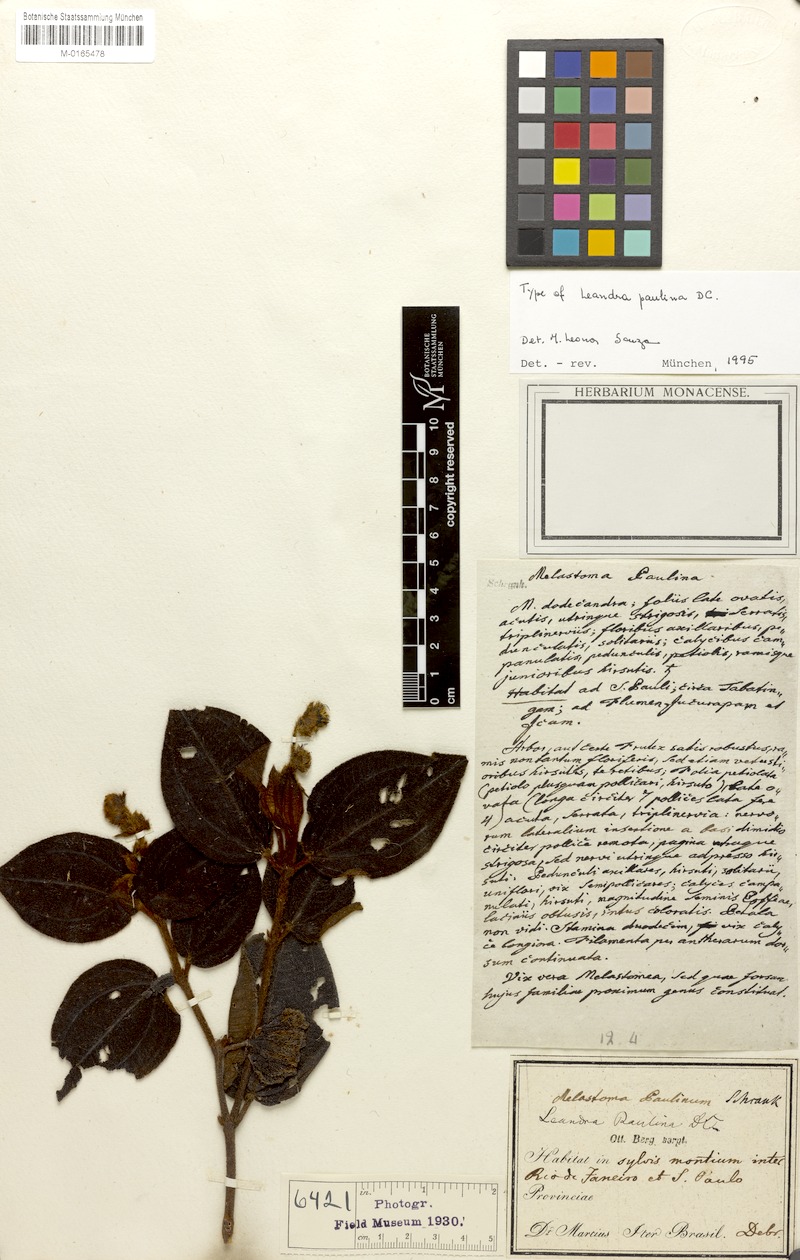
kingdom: Plantae
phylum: Tracheophyta
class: Magnoliopsida
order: Myrtales
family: Melastomataceae
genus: Miconia
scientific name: Miconia paulina
